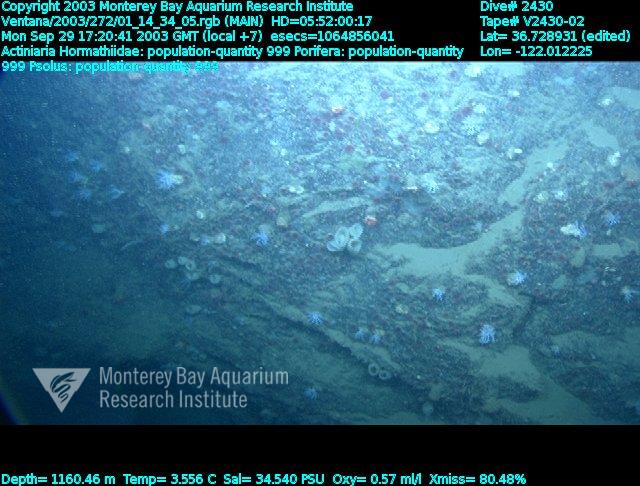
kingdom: Animalia
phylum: Porifera
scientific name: Porifera
